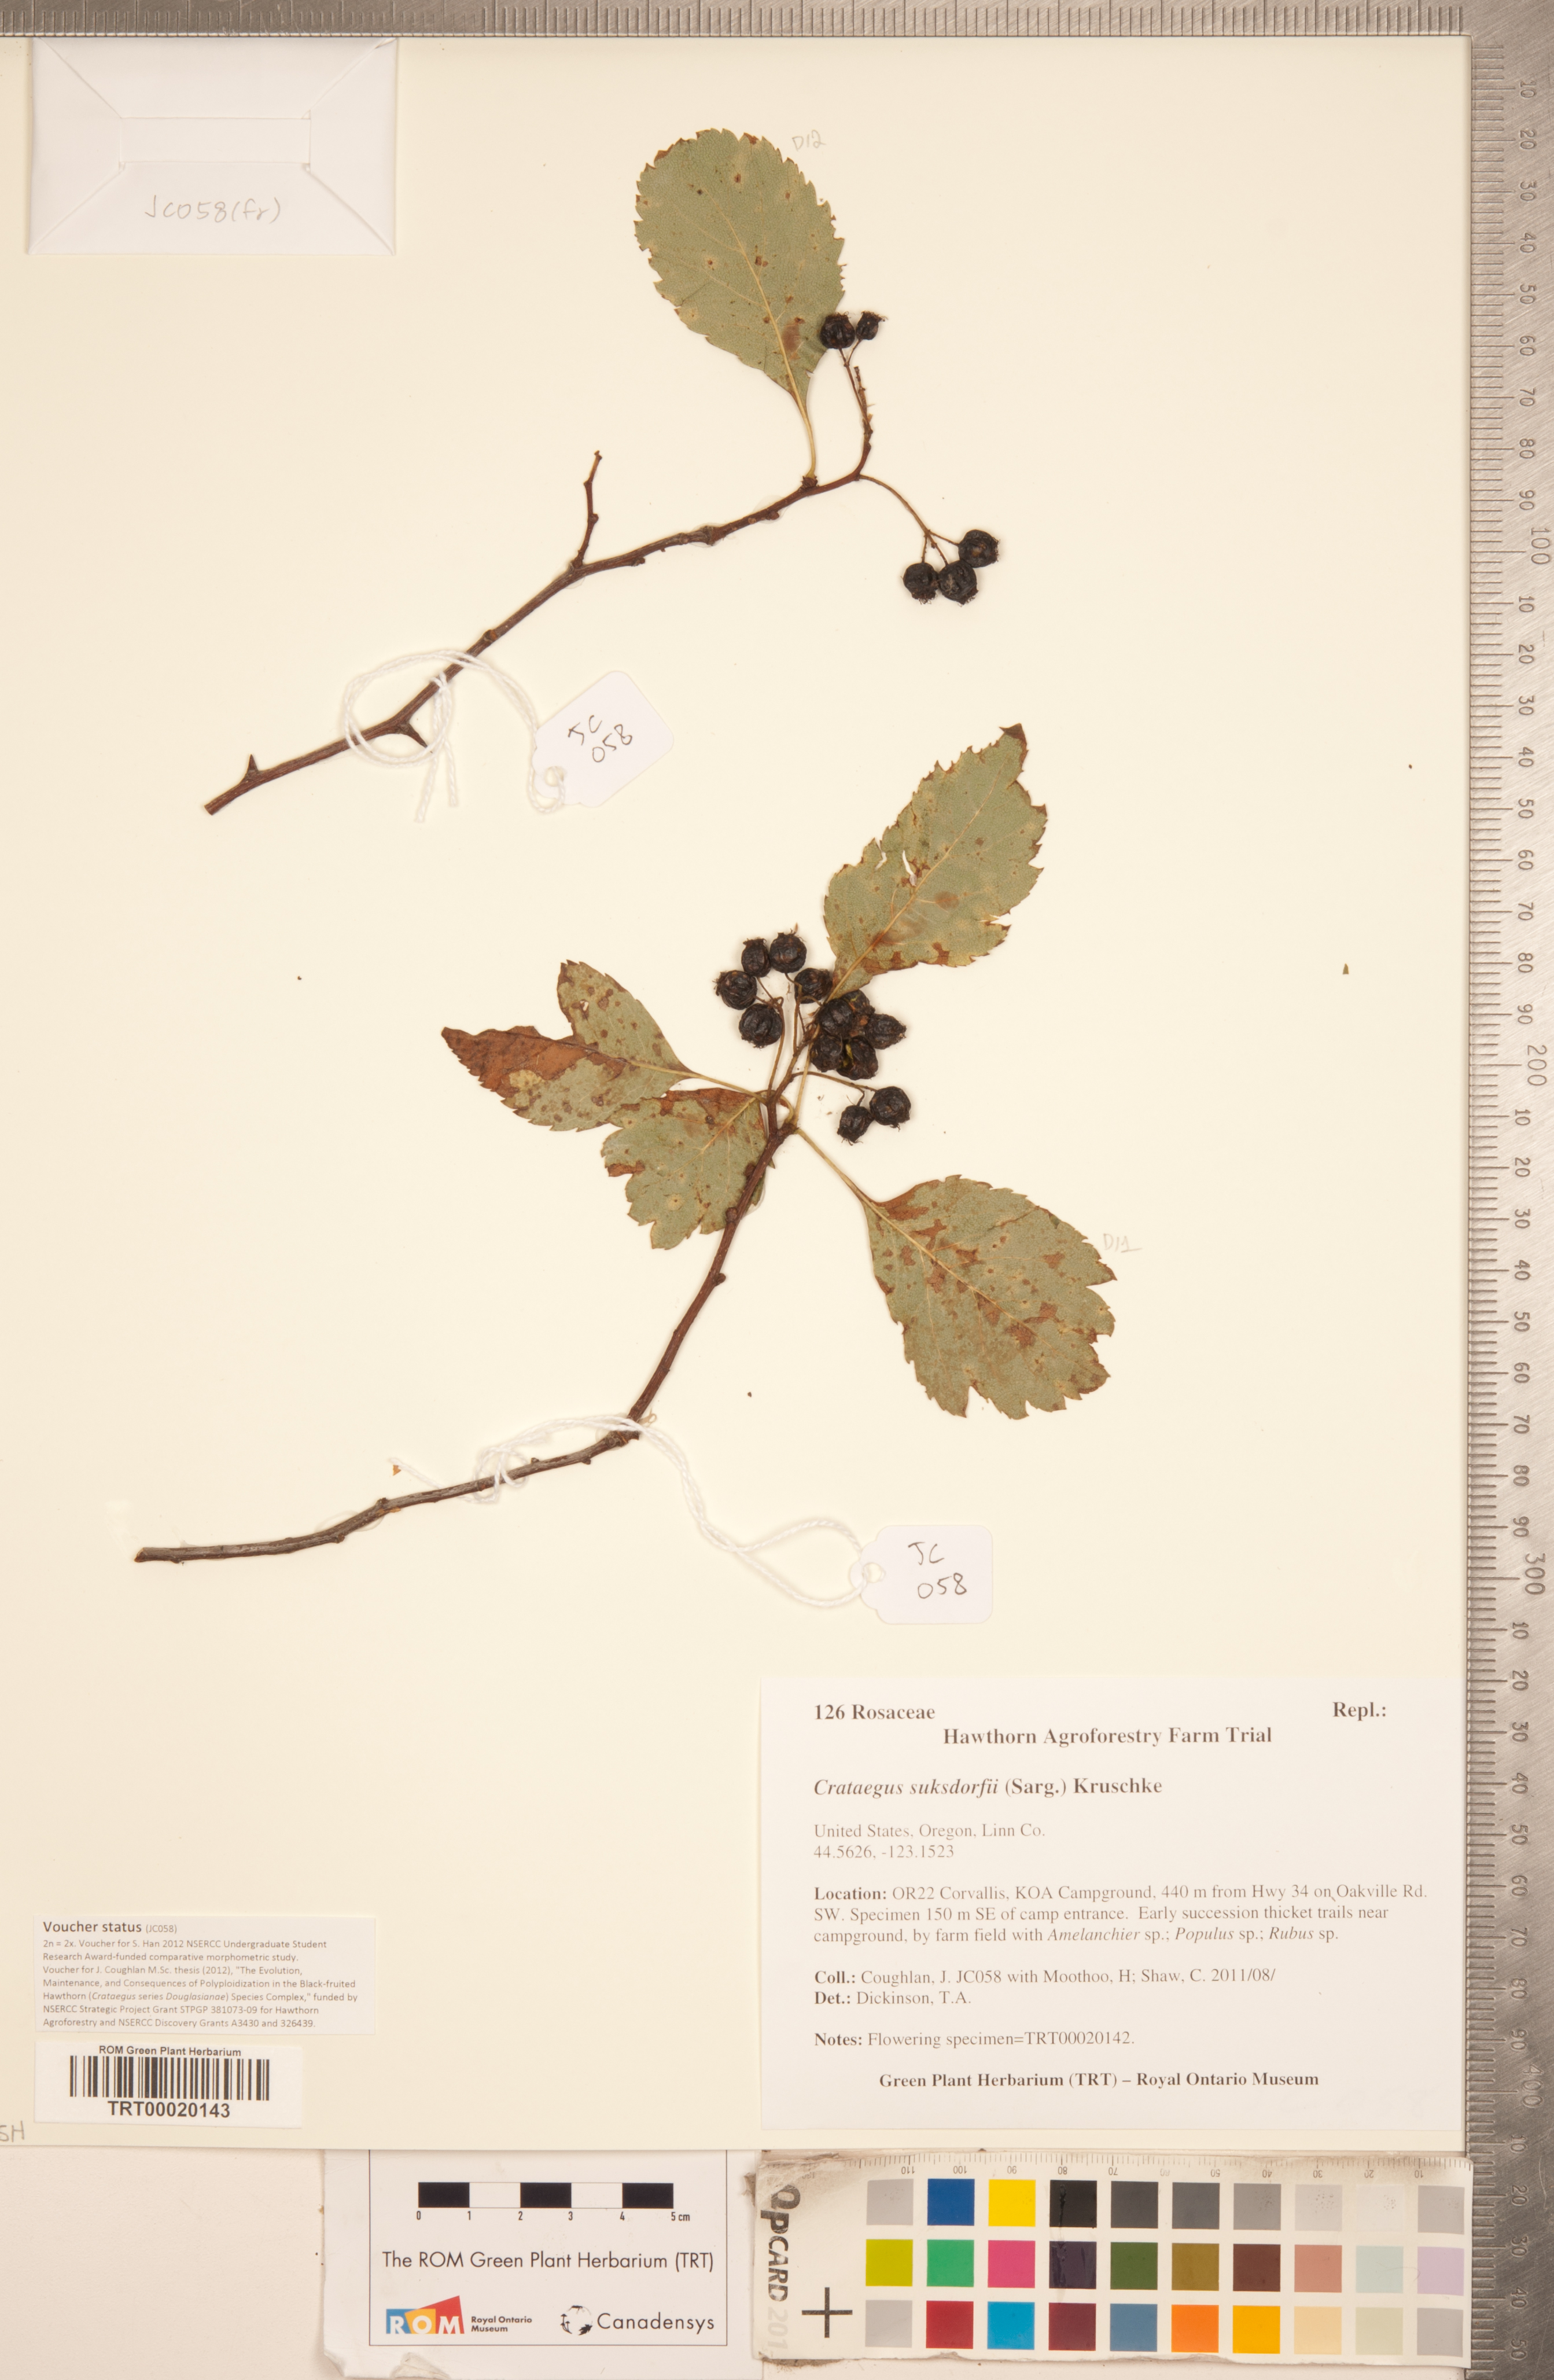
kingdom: Plantae
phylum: Tracheophyta
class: Magnoliopsida
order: Rosales
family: Rosaceae
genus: Crataegus
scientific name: Crataegus gaylussacia
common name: Huckleberry hawthorn
